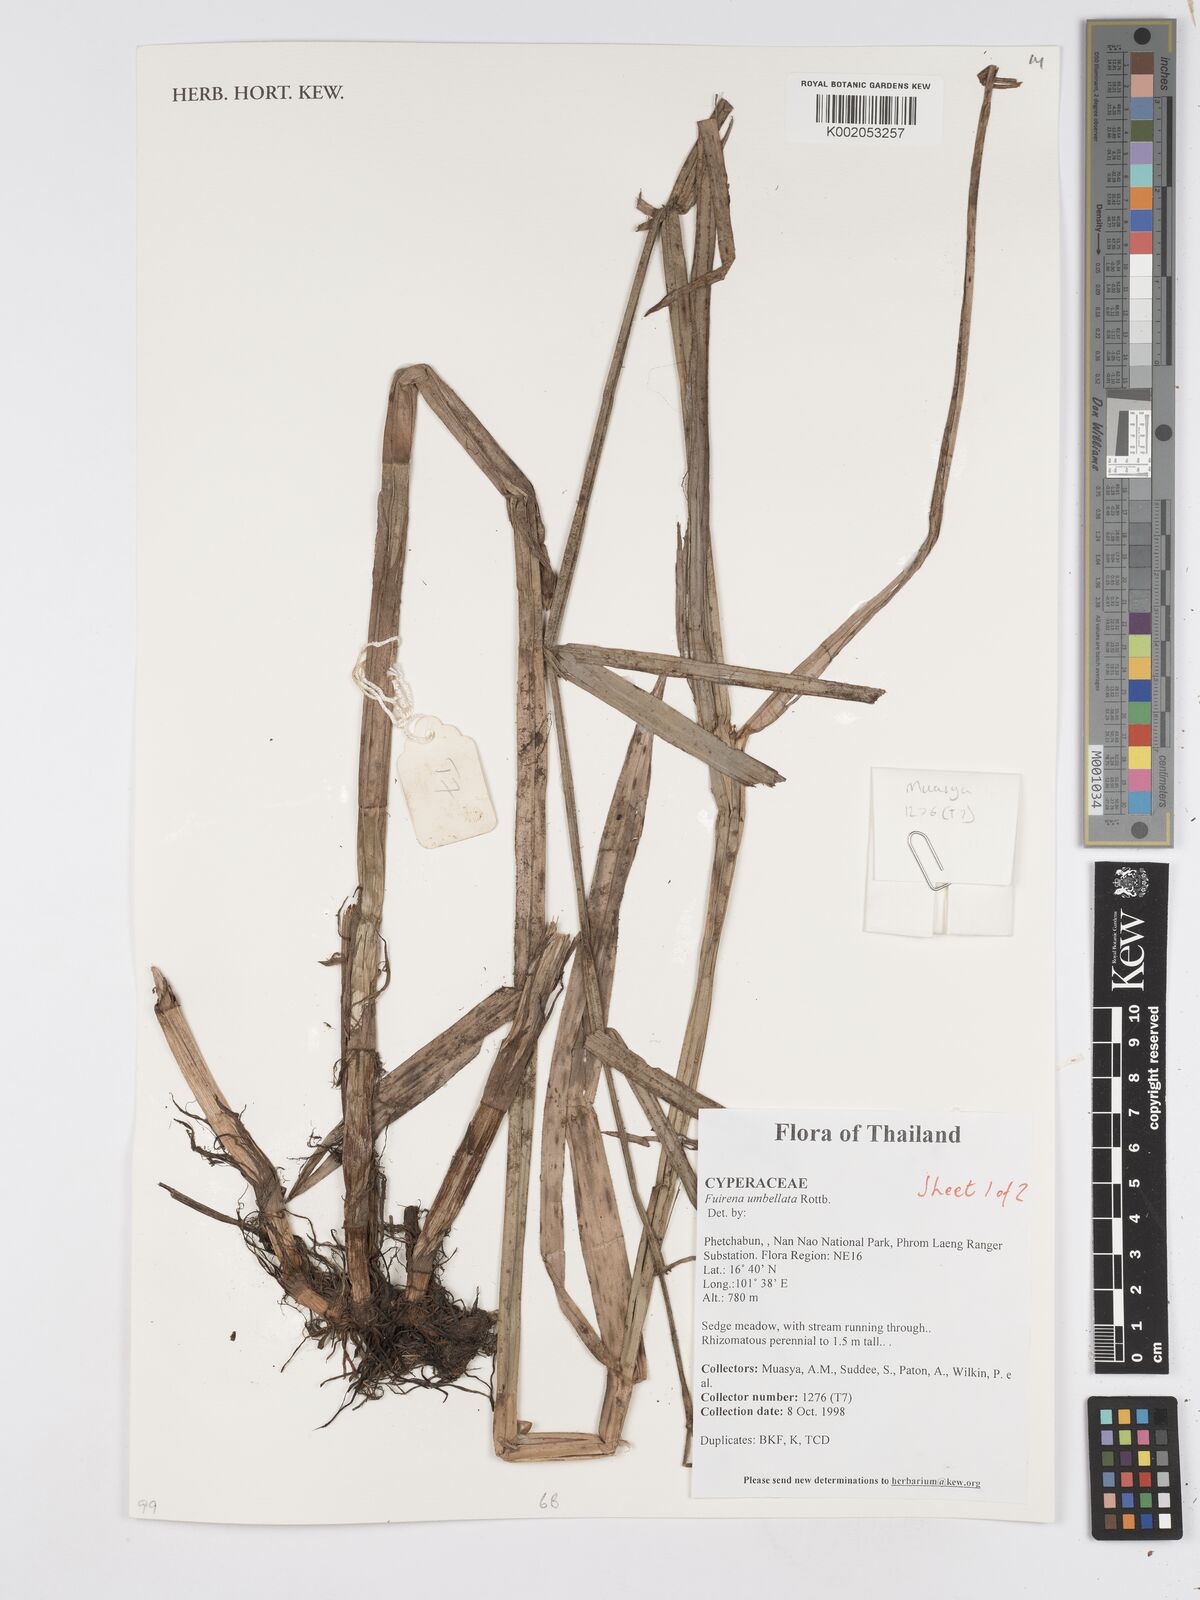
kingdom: Plantae
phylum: Tracheophyta
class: Liliopsida
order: Poales
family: Cyperaceae
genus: Fuirena
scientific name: Fuirena umbellata
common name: Yefen
